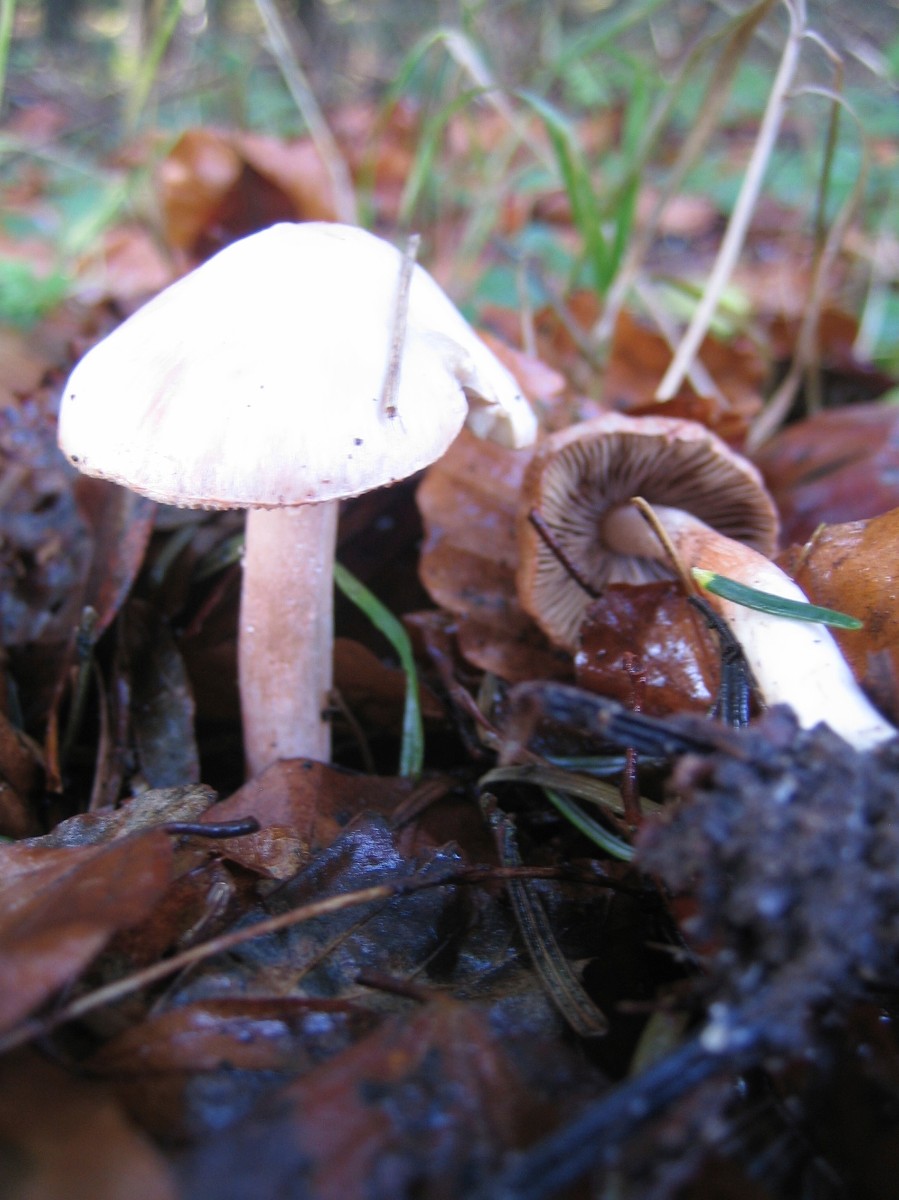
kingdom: Fungi
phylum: Basidiomycota
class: Agaricomycetes
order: Agaricales
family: Inocybaceae
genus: Inocybe
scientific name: Inocybe
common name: trævlhat
